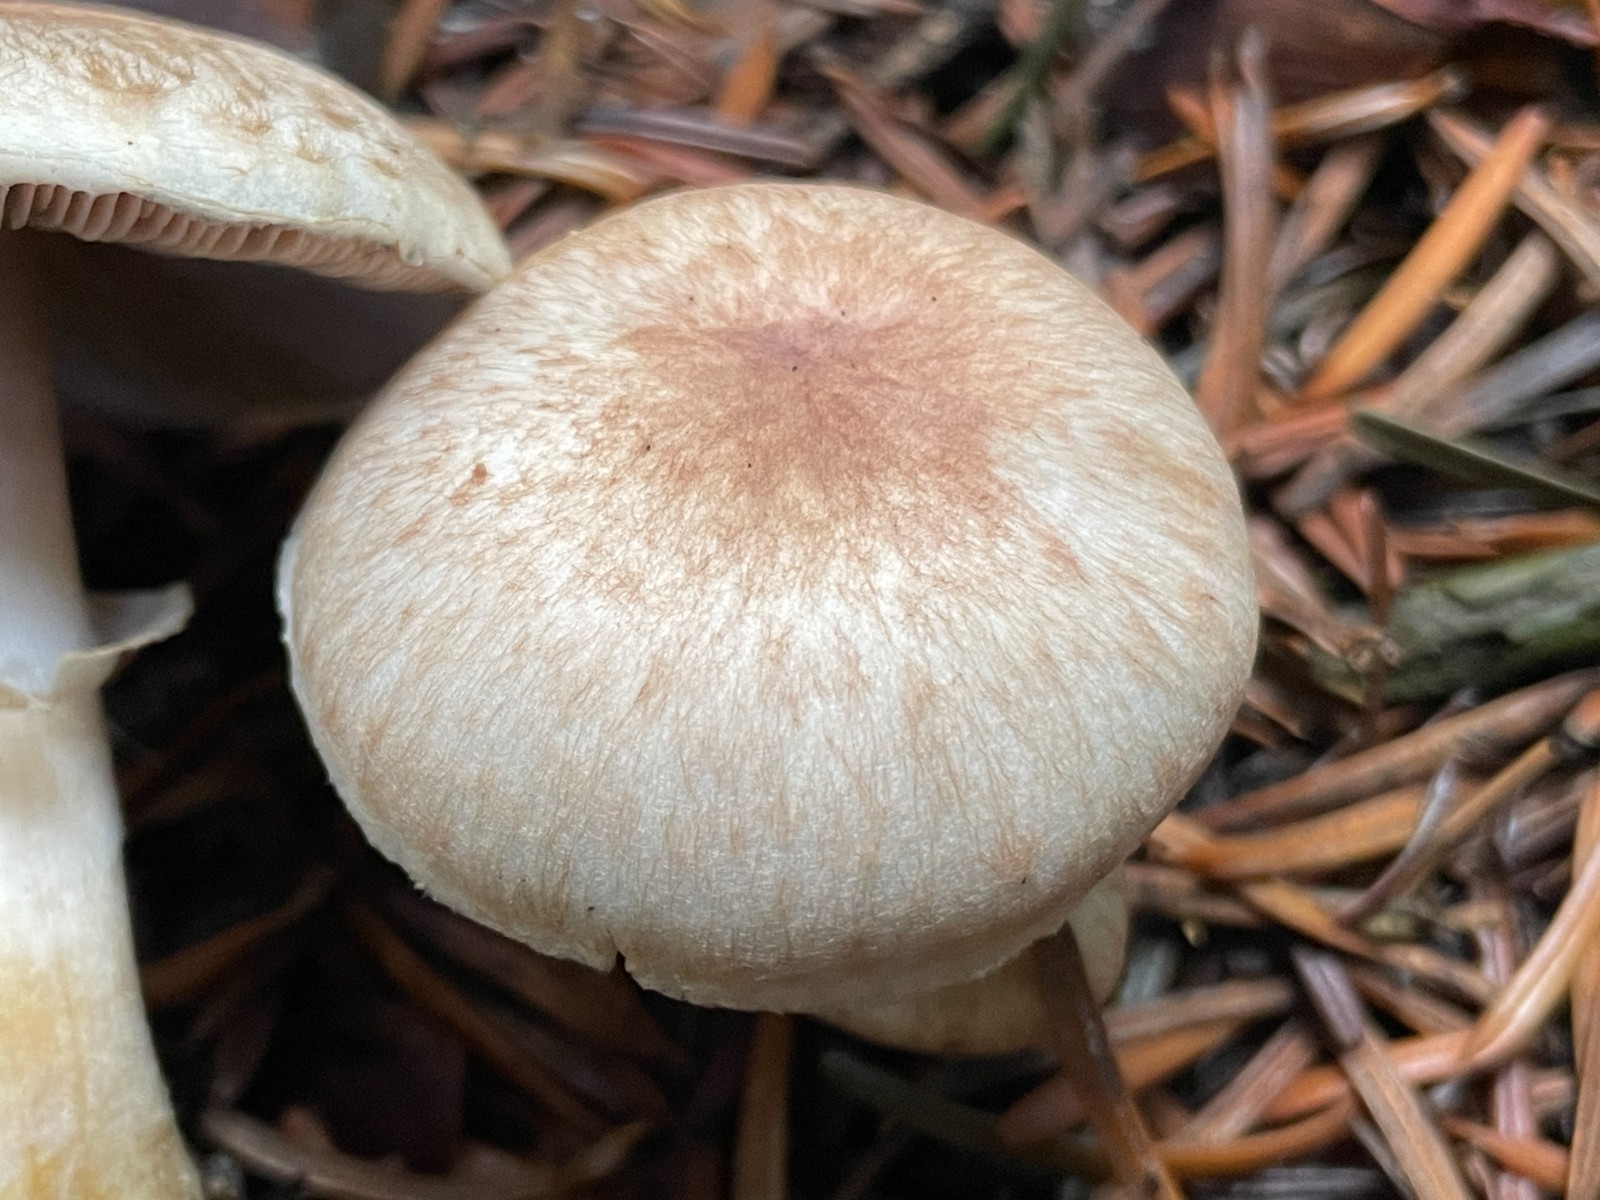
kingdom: Fungi
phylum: Basidiomycota
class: Agaricomycetes
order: Agaricales
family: Agaricaceae
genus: Agaricus
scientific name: Agaricus brunneolus
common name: purpur-champignon
